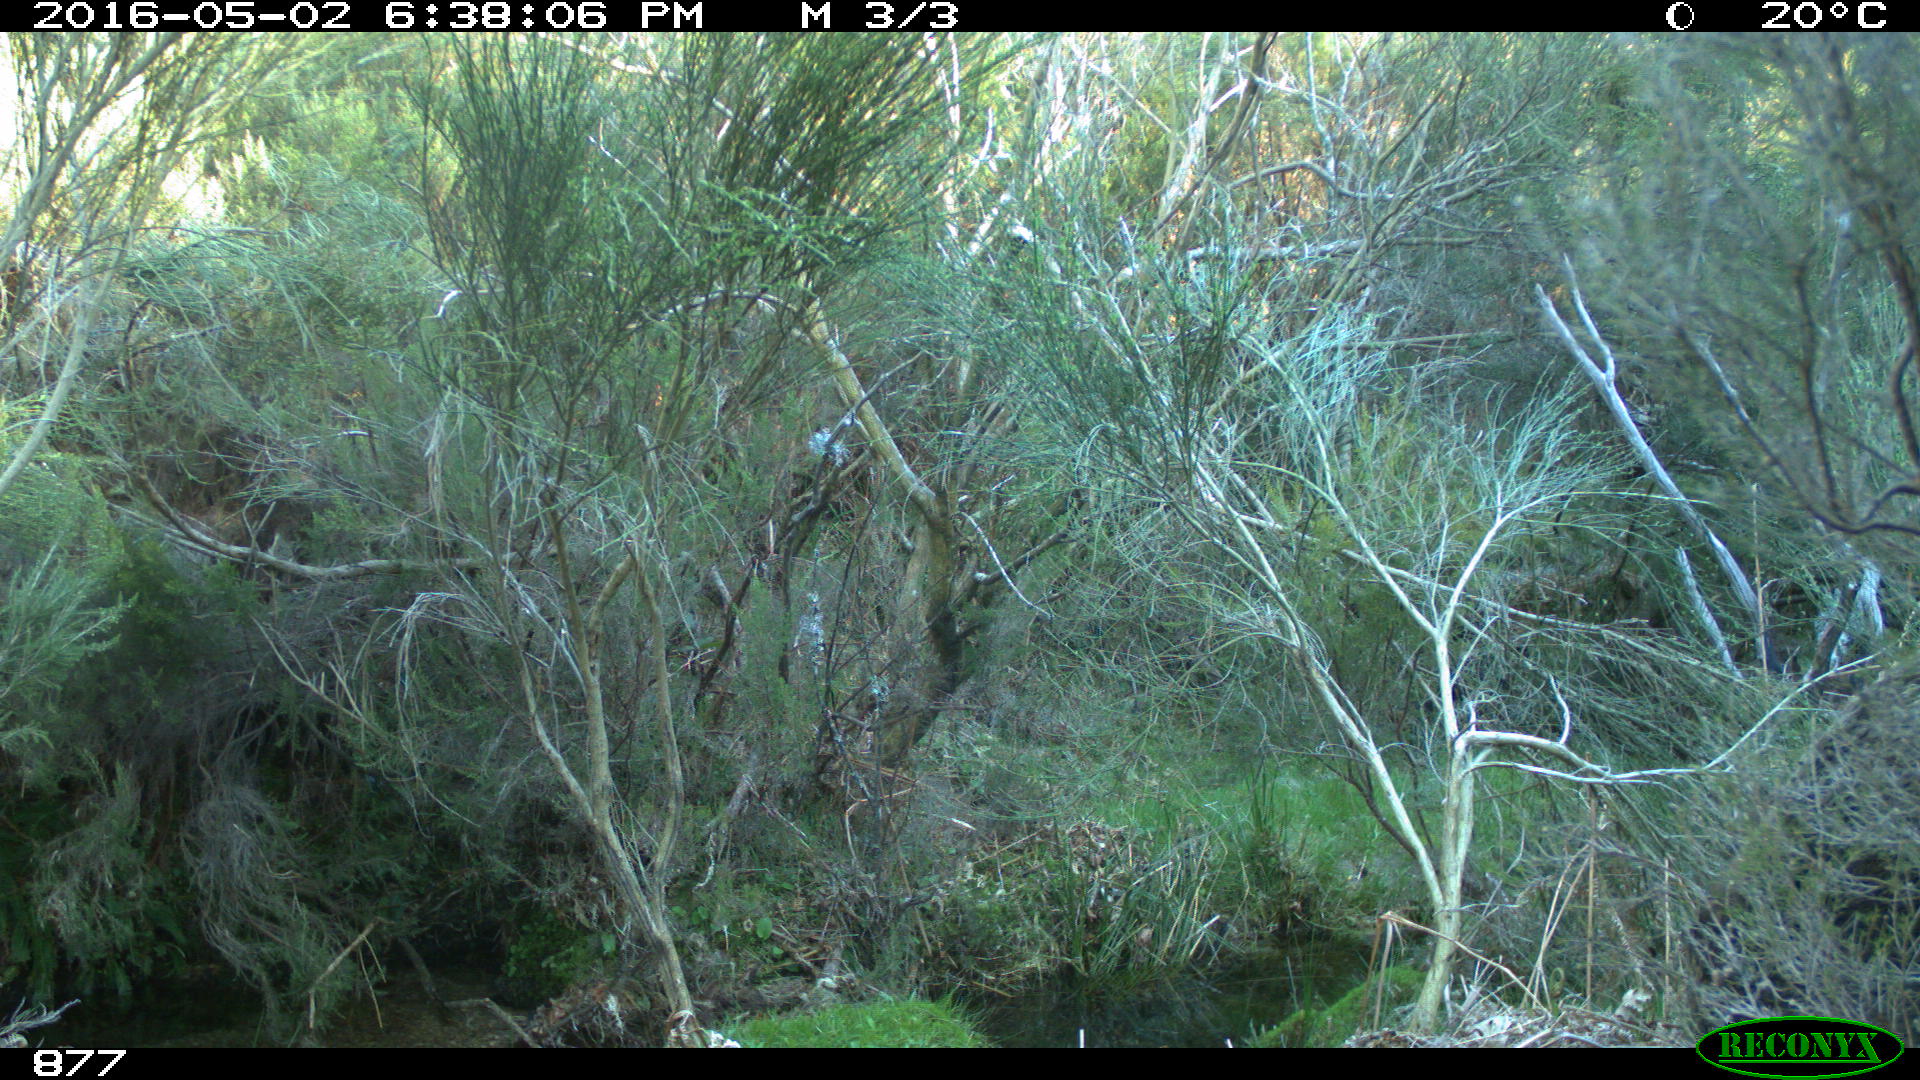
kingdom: Animalia
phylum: Chordata
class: Mammalia
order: Artiodactyla
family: Suidae
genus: Sus
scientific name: Sus scrofa
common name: Wild boar
